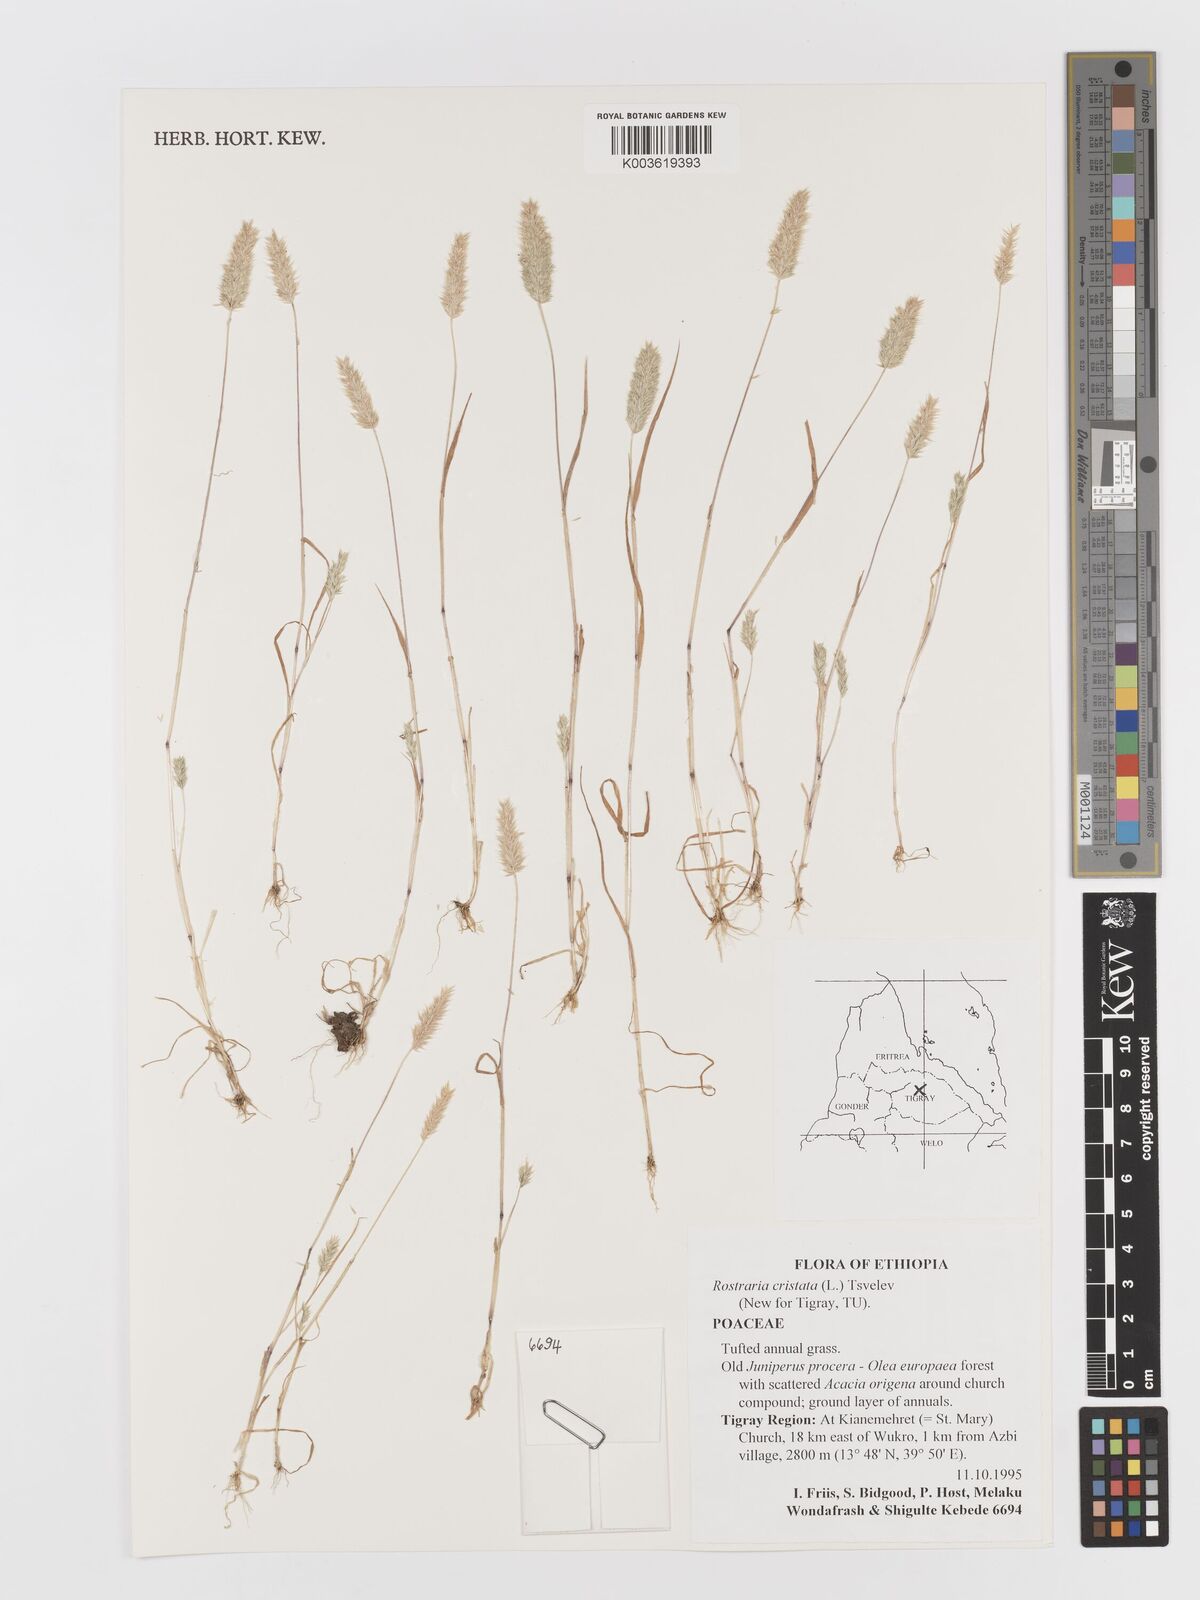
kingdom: Plantae
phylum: Tracheophyta
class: Liliopsida
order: Poales
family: Poaceae
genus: Rostraria
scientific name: Rostraria cristata
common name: Mediterranean hair-grass
